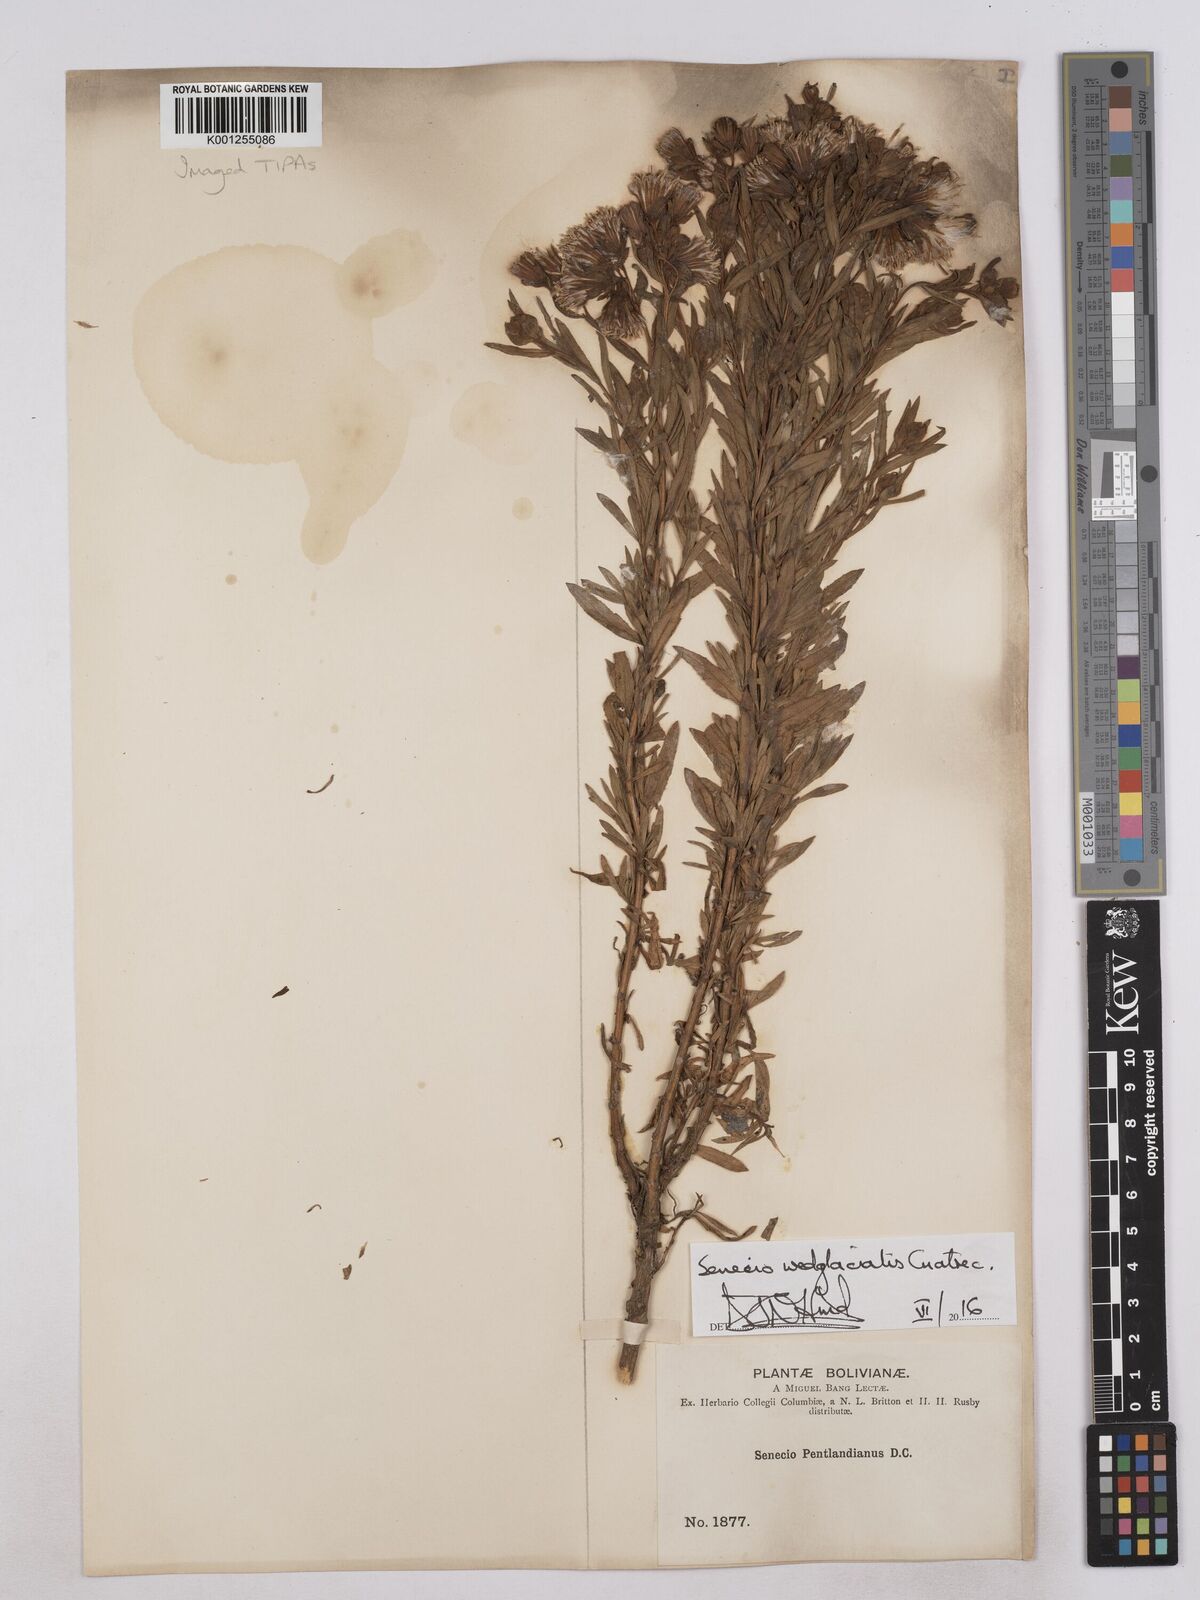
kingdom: Plantae
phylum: Tracheophyta
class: Magnoliopsida
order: Asterales
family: Asteraceae
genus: Senecio
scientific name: Senecio wedglacialis
